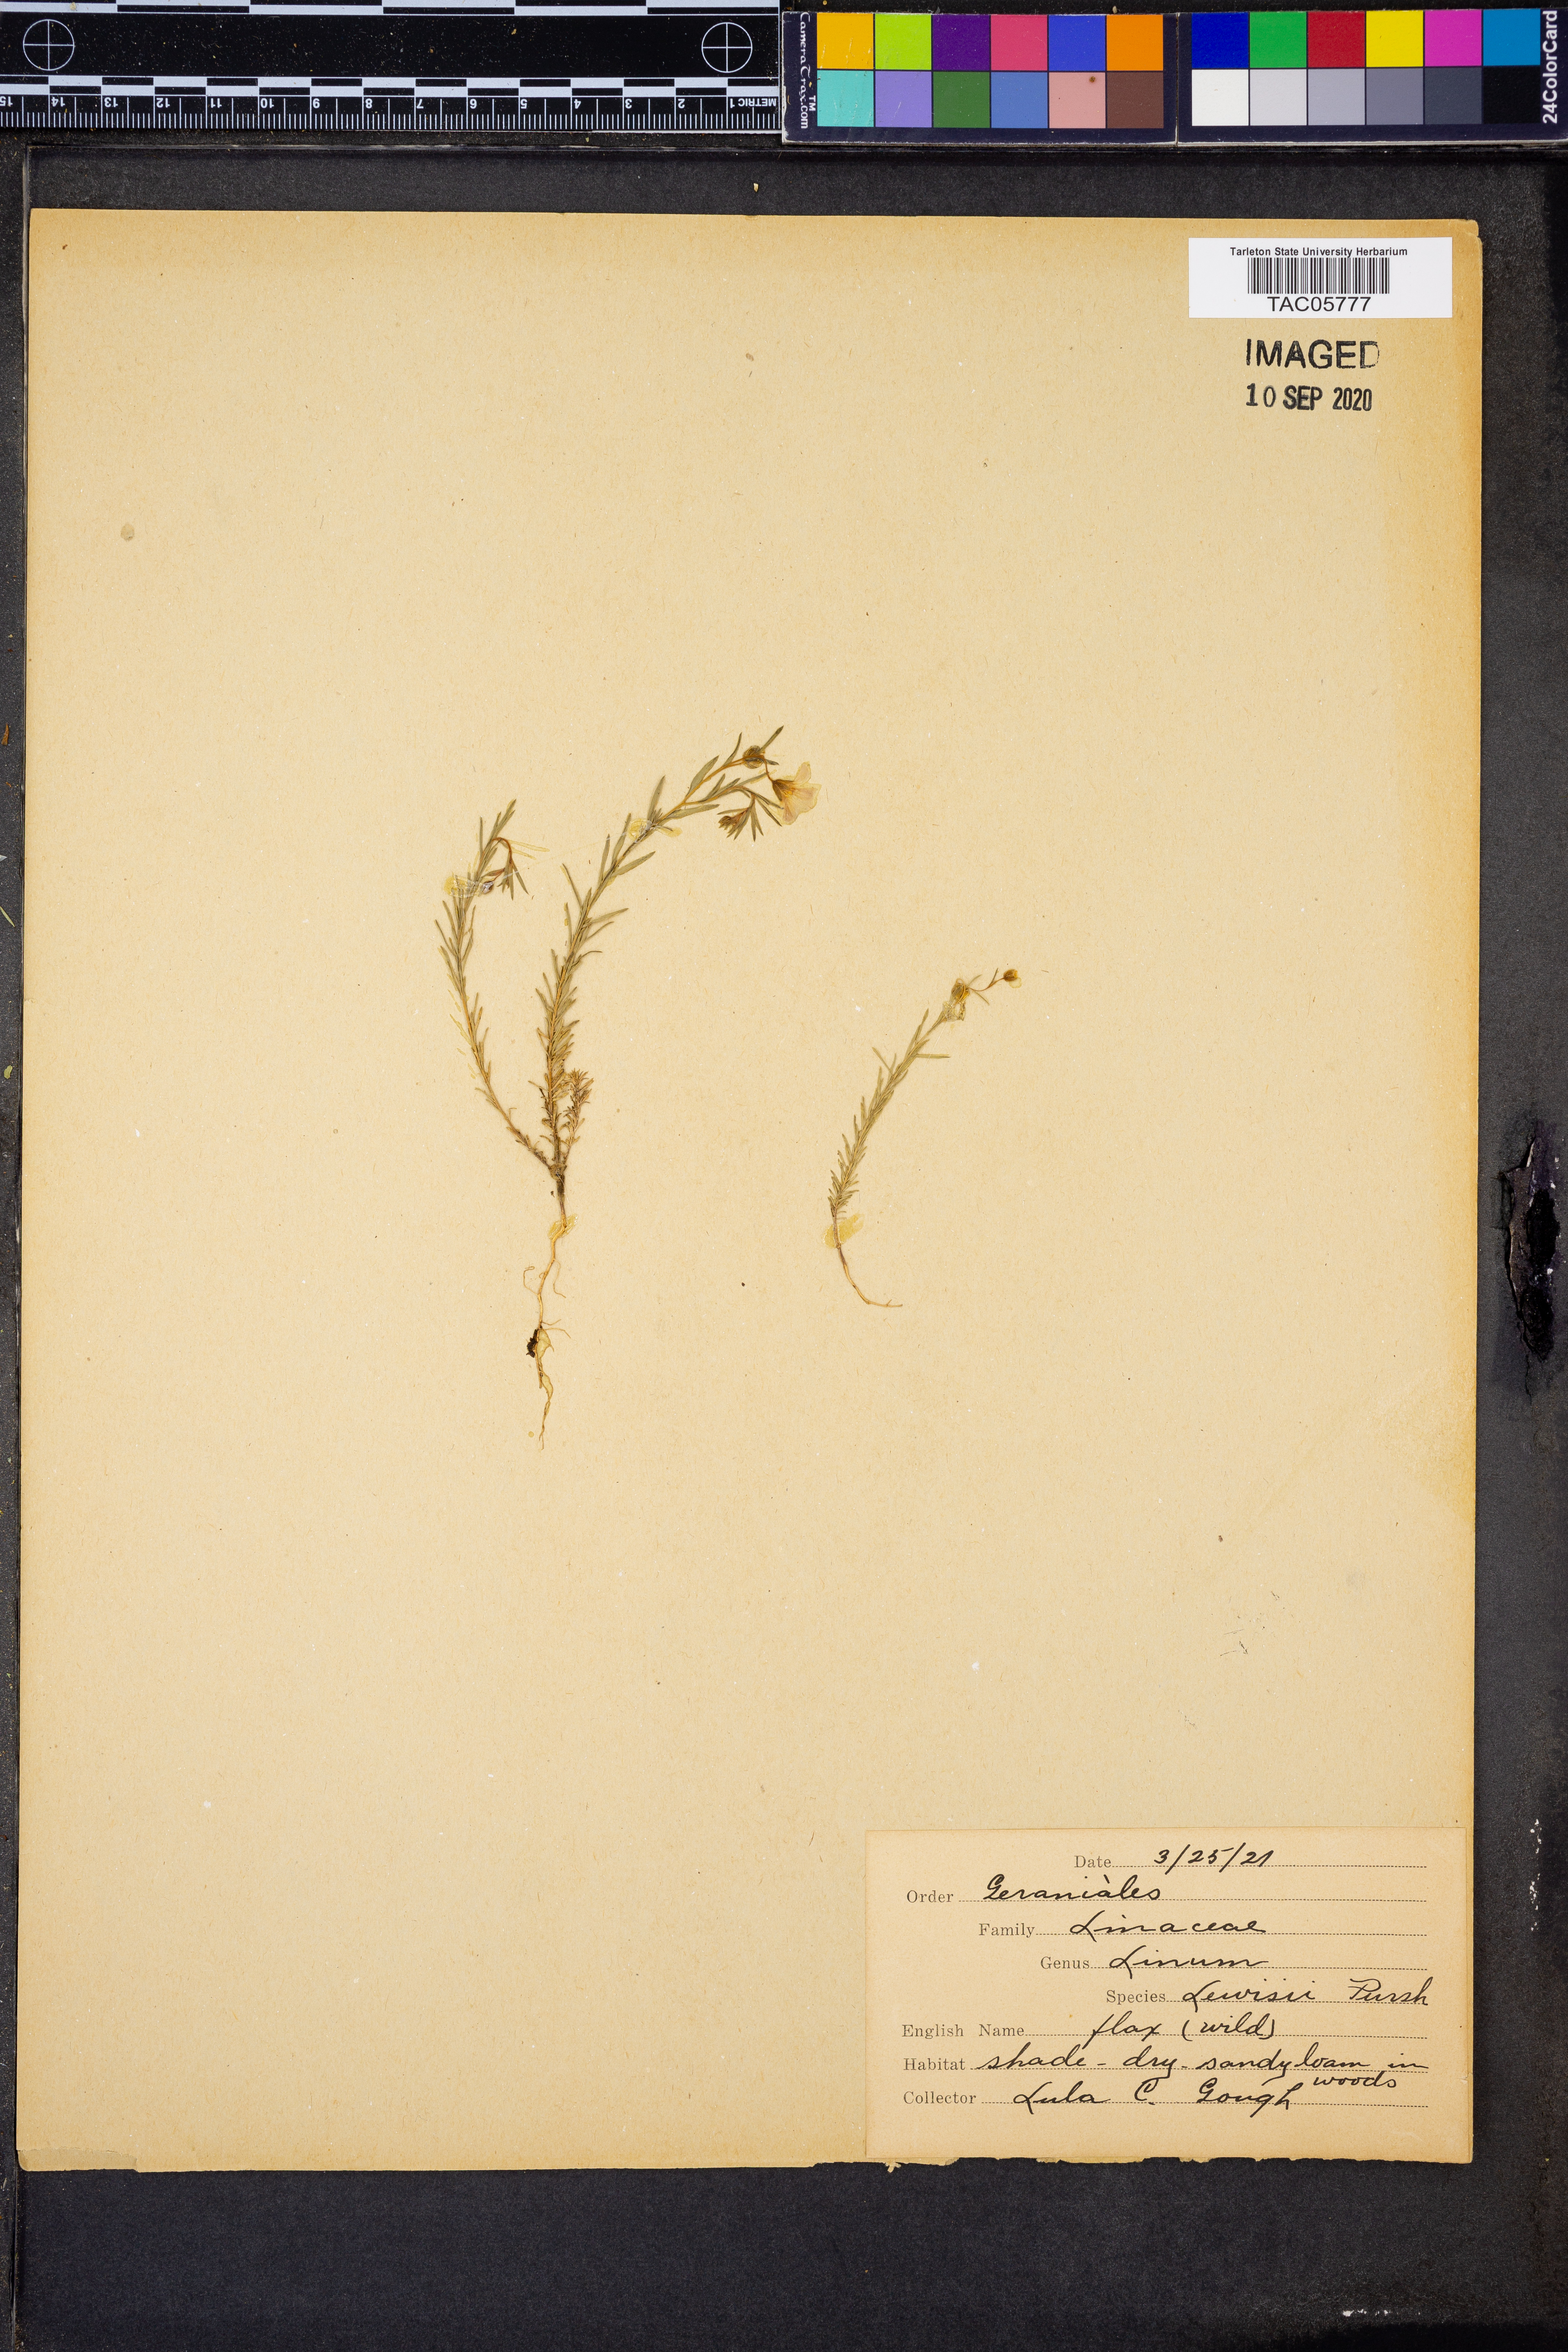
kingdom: Plantae
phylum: Tracheophyta
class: Magnoliopsida
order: Malpighiales
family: Linaceae
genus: Linum
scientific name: Linum lewisii
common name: Prairie flax
